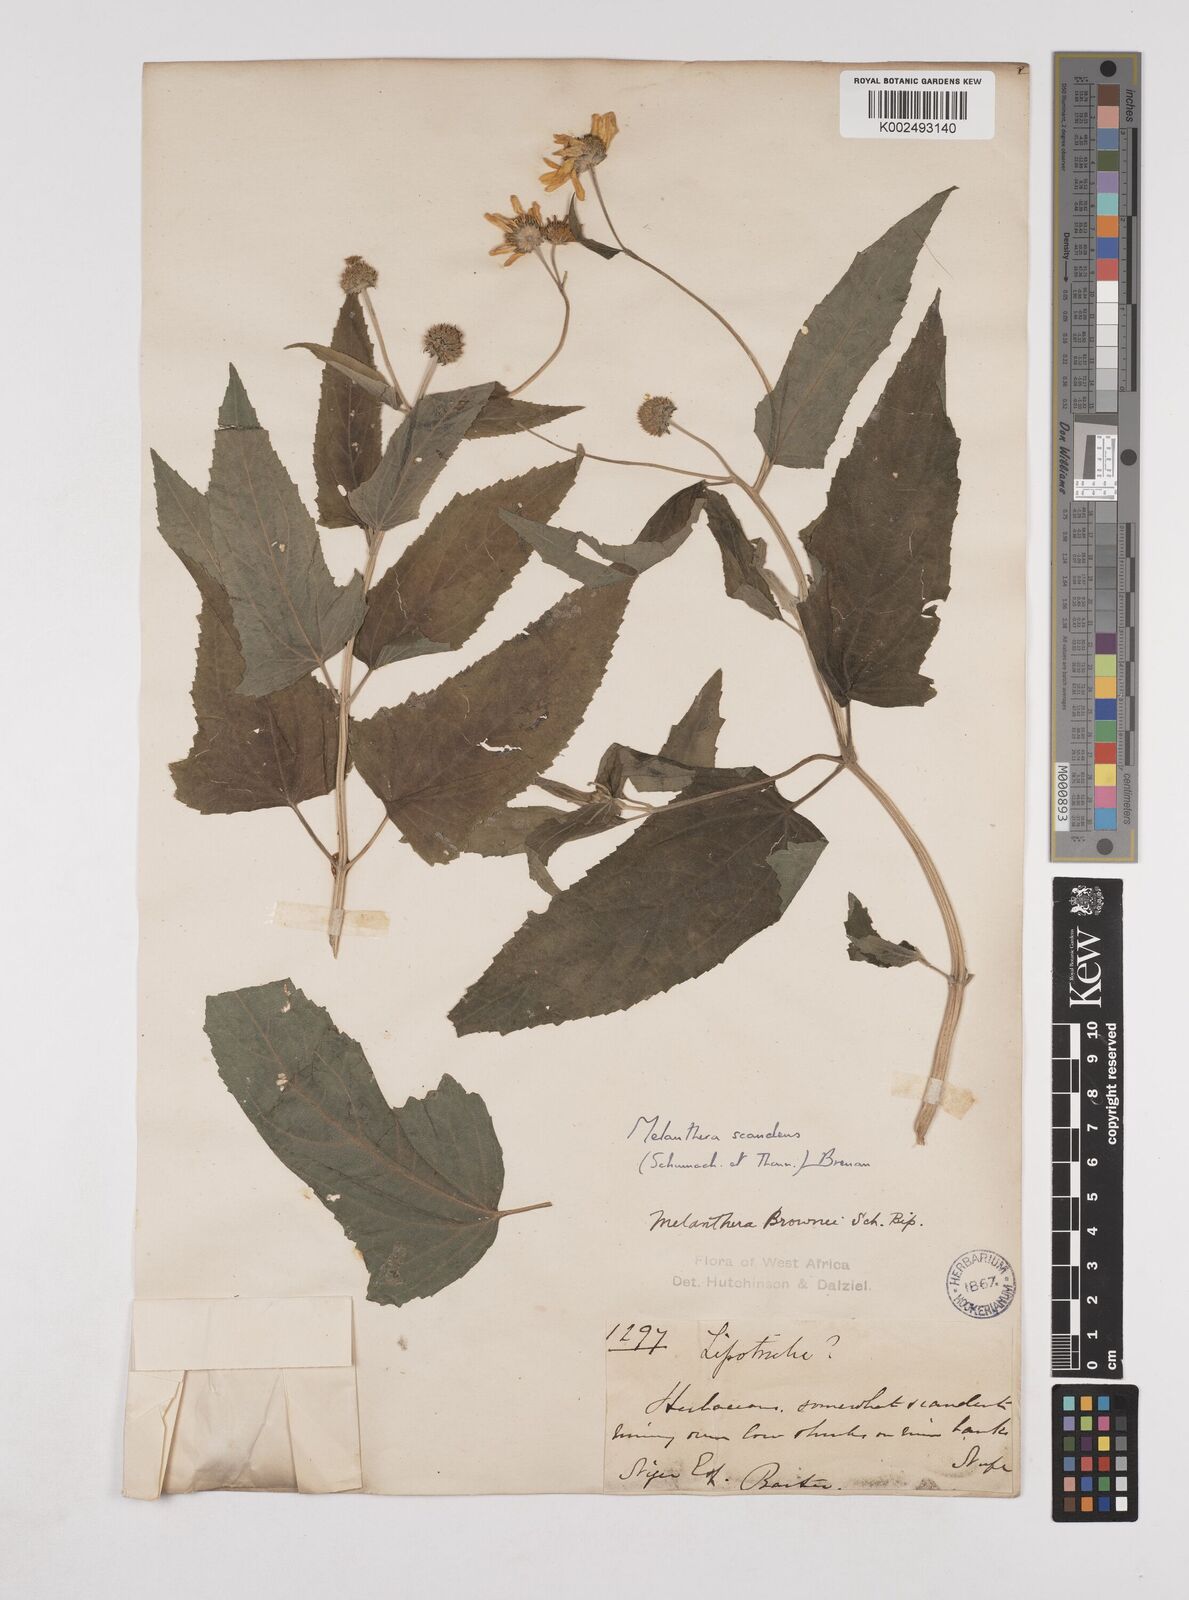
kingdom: Plantae
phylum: Tracheophyta
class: Magnoliopsida
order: Asterales
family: Asteraceae
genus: Lipotriche
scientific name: Lipotriche scandens
